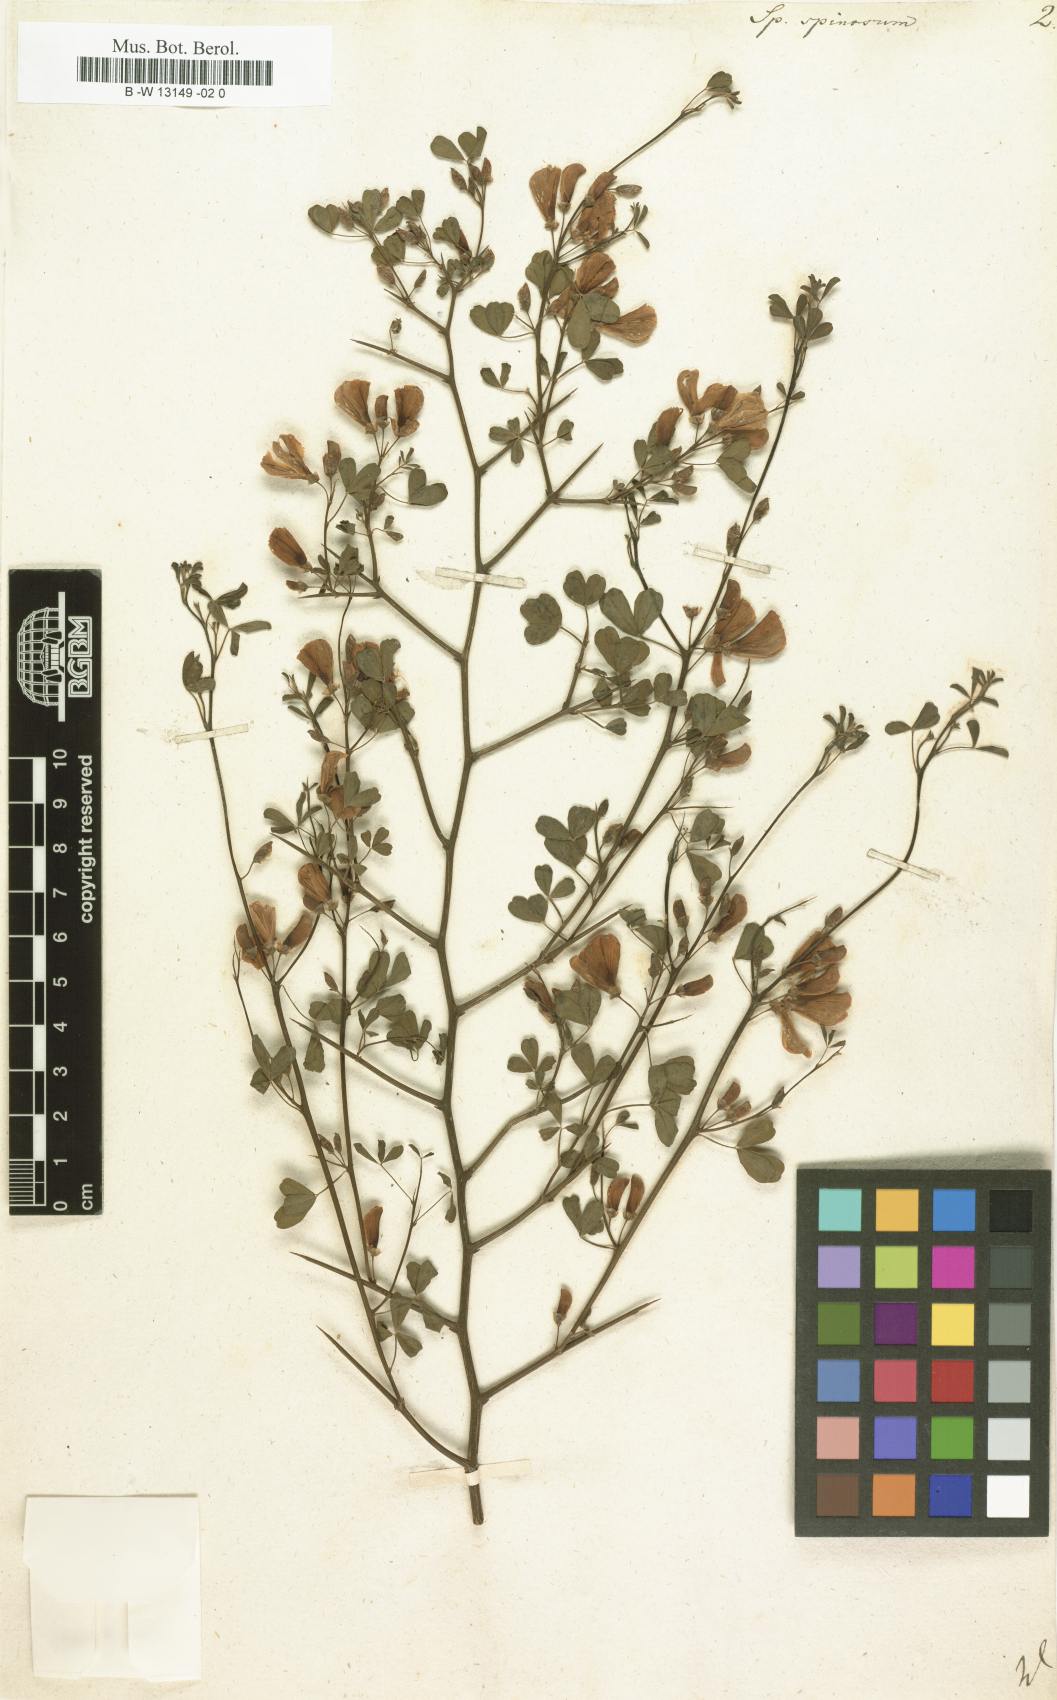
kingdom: Plantae
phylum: Tracheophyta
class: Magnoliopsida
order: Fabales
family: Fabaceae
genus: Spartium
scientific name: Spartium spinosum
